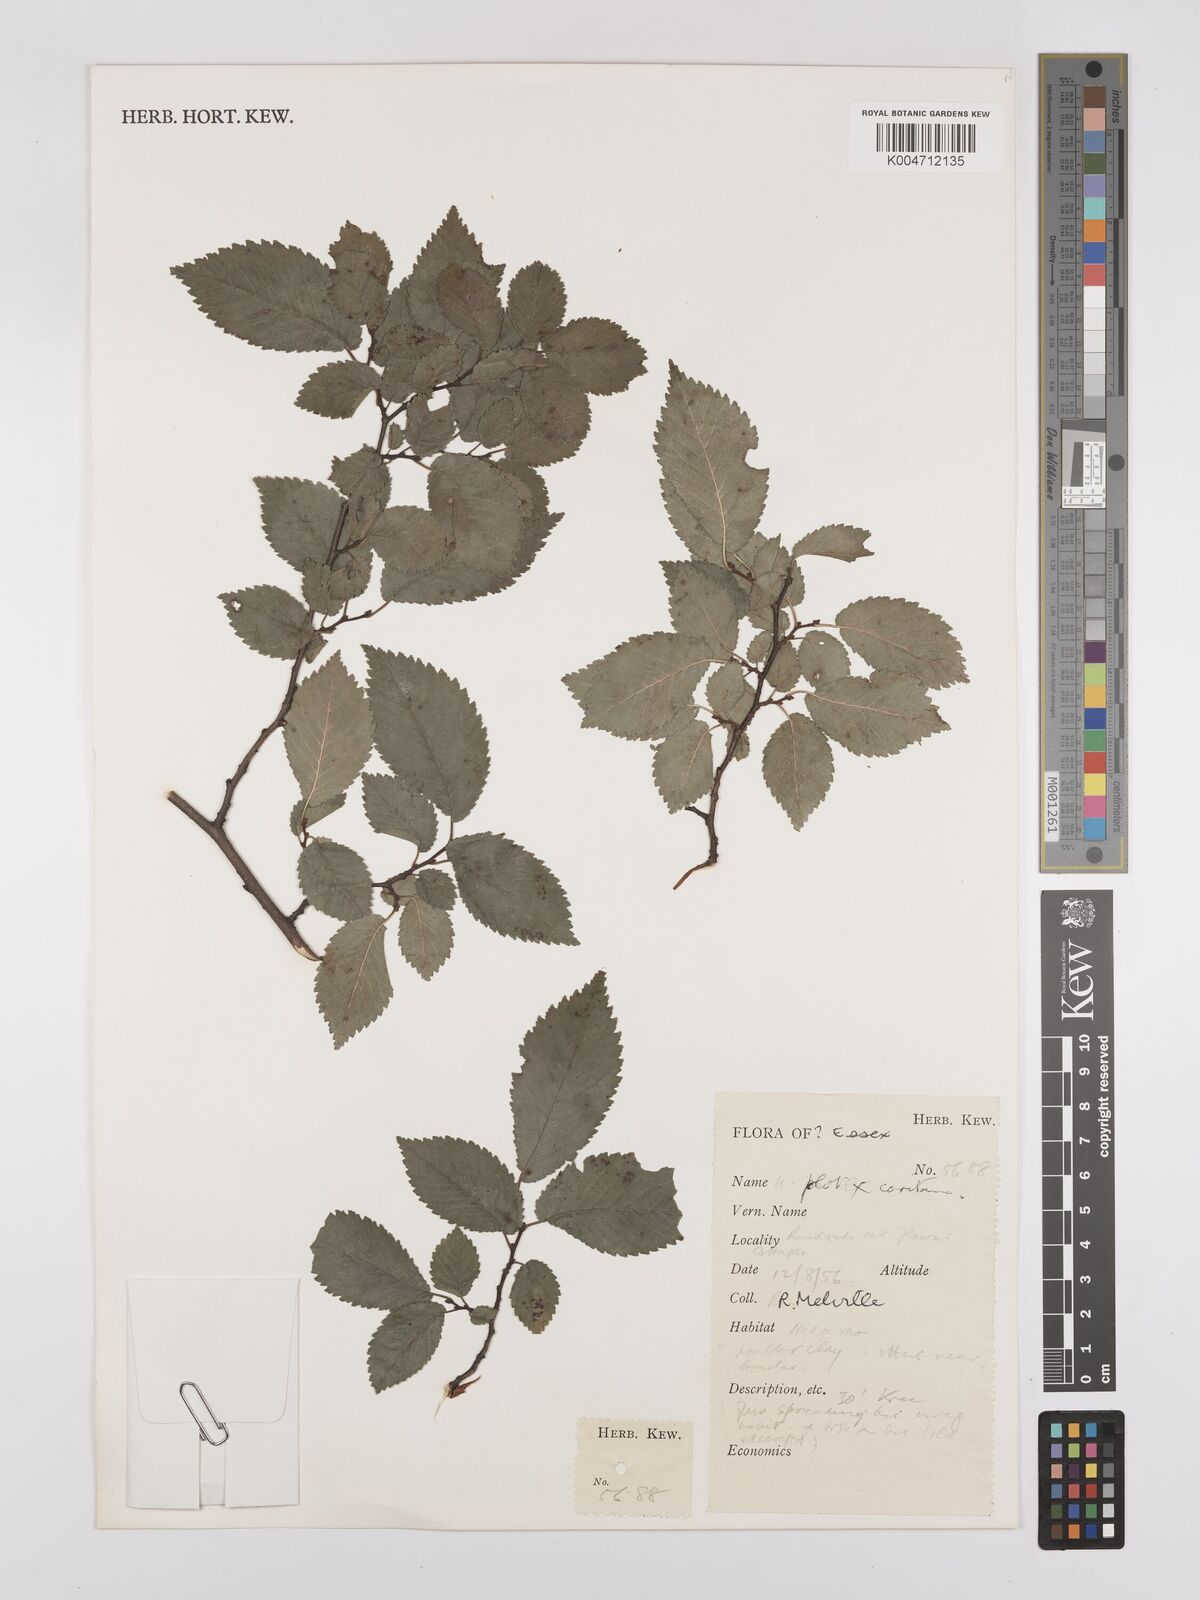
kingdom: Plantae
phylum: Tracheophyta
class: Magnoliopsida
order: Rosales
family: Ulmaceae
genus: Ulmus
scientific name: Ulmus minor
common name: Small-leaved elm
